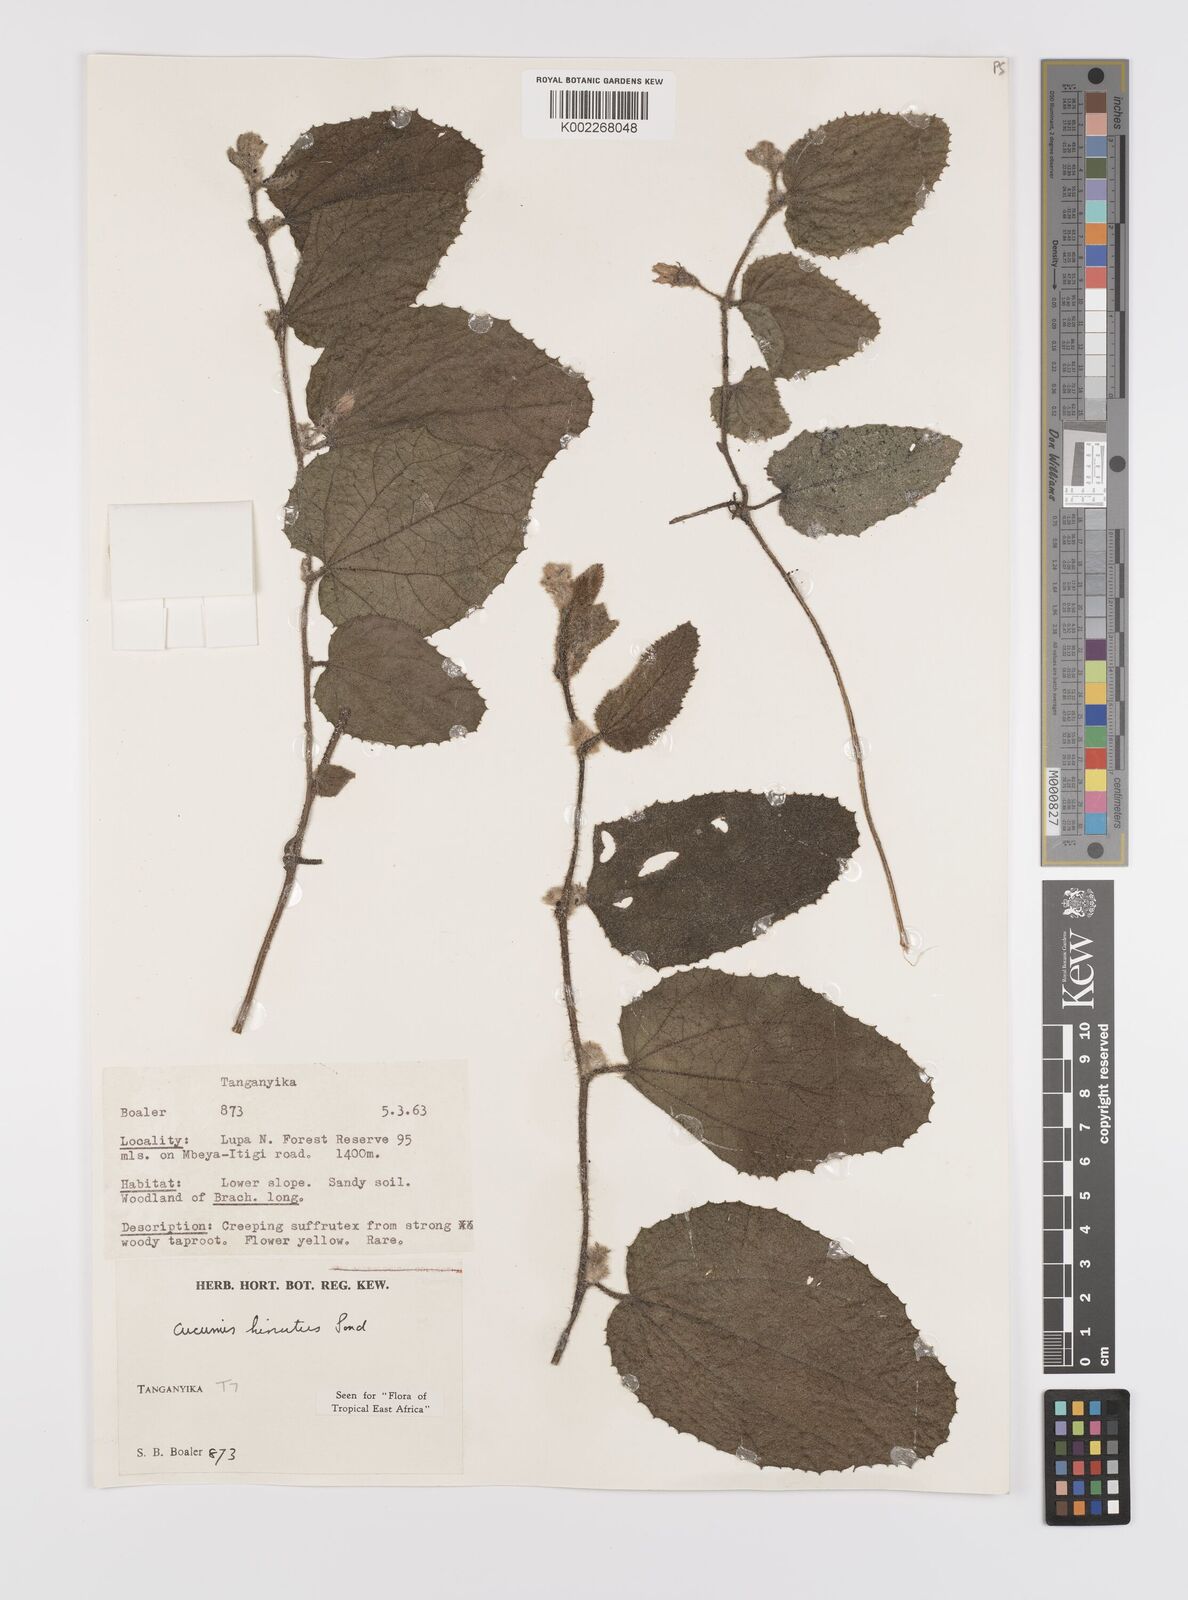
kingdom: Plantae
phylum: Tracheophyta
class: Magnoliopsida
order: Cucurbitales
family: Cucurbitaceae
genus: Cucumis
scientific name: Cucumis hirsutus
